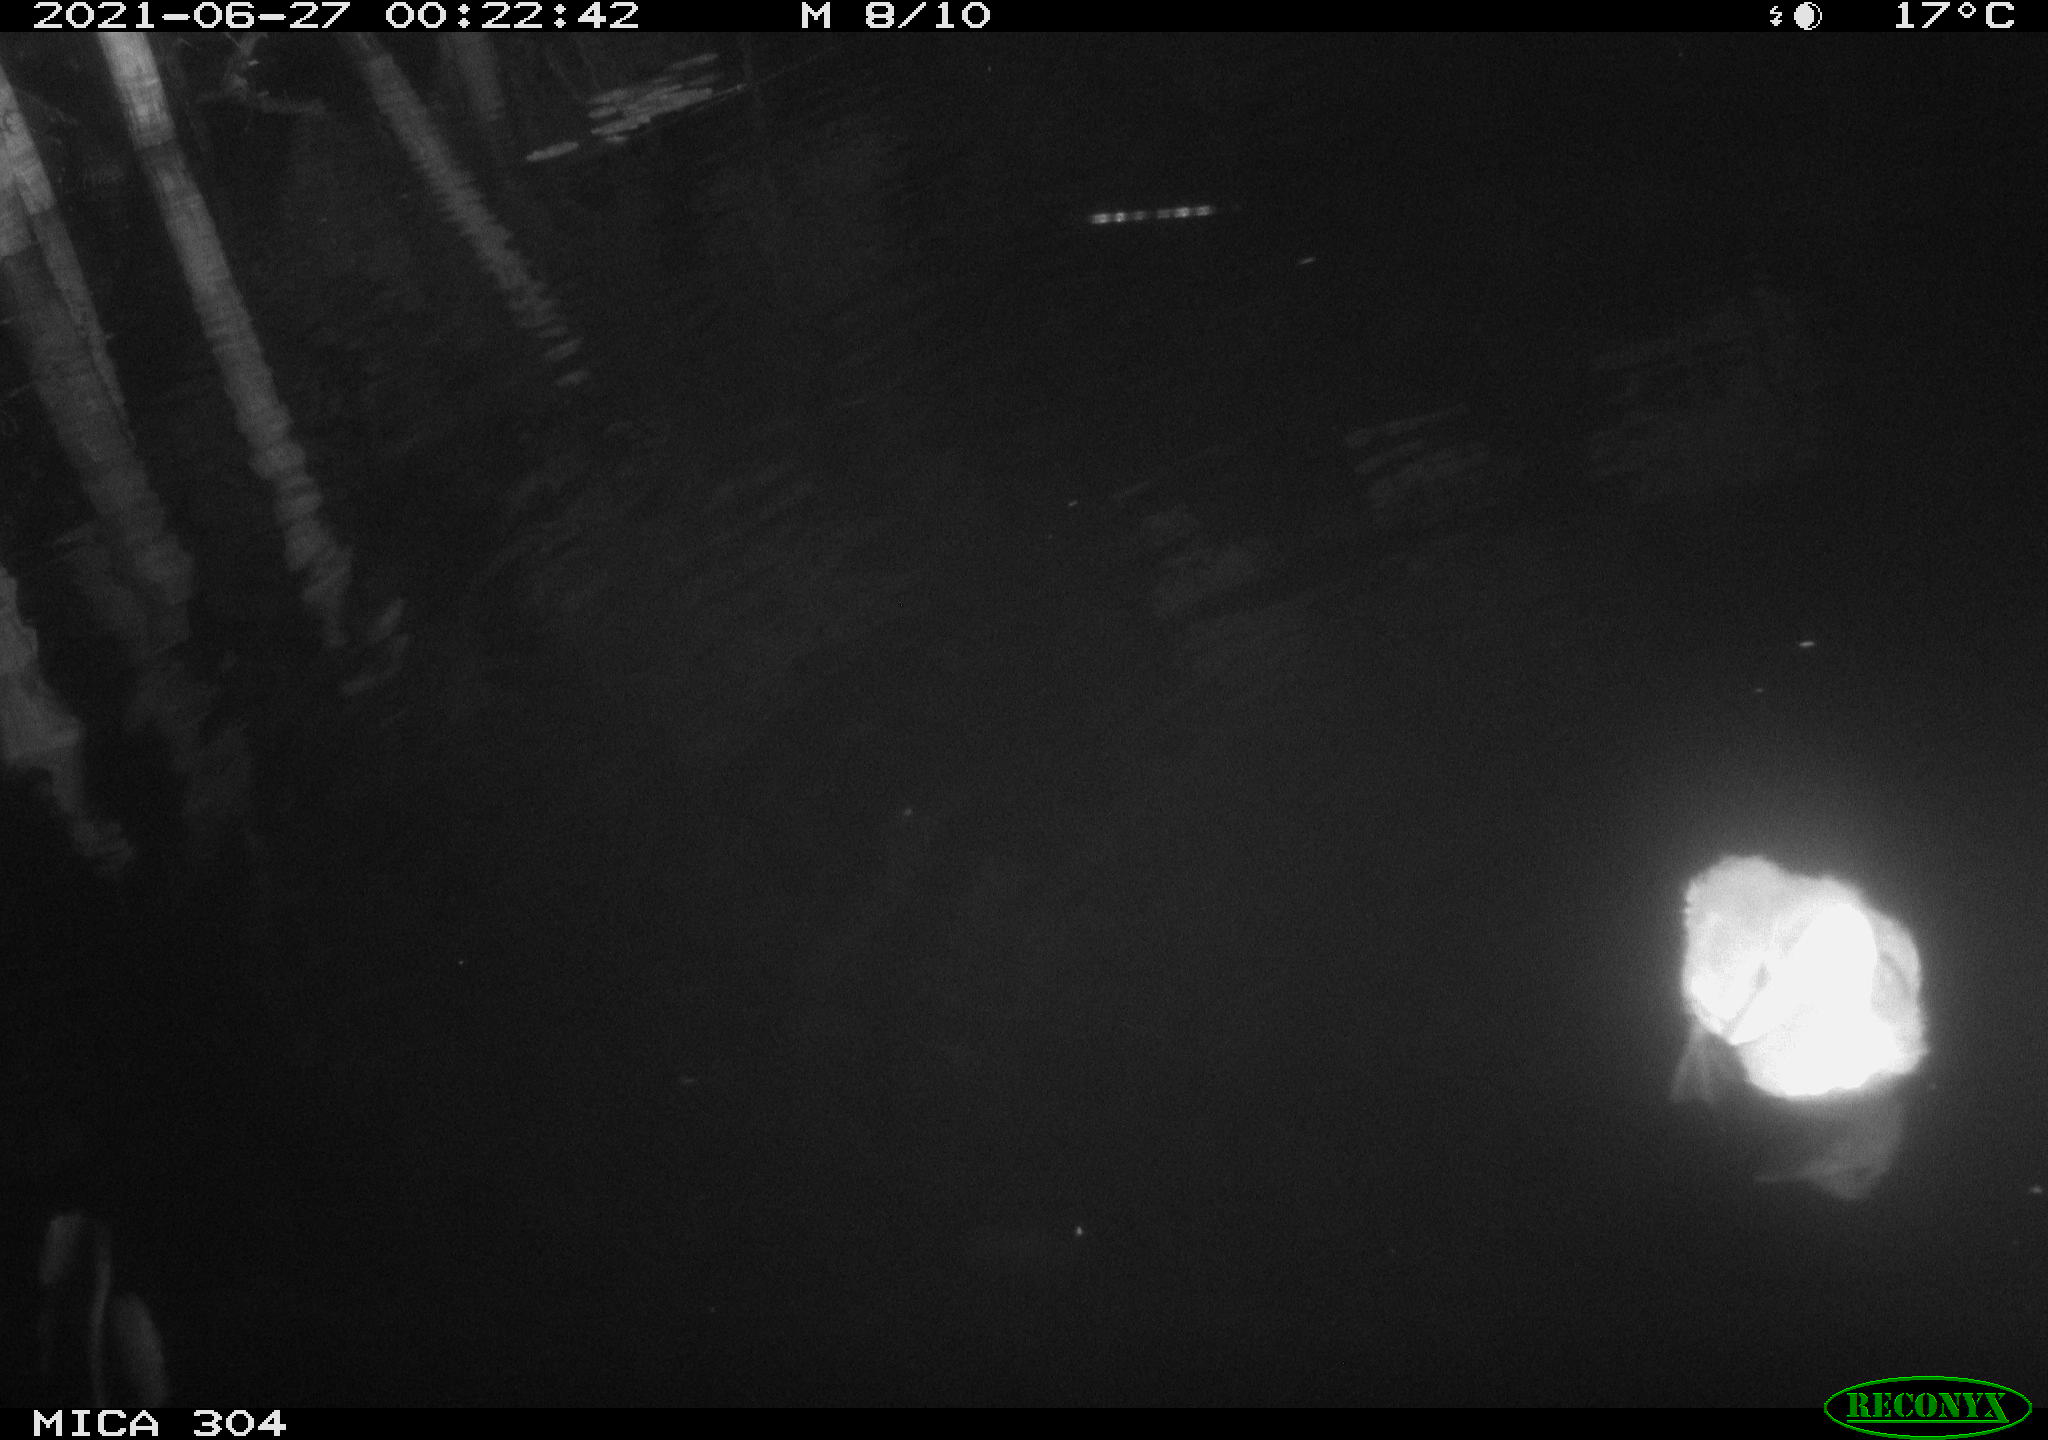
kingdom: Animalia
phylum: Chordata
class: Aves
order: Anseriformes
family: Anatidae
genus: Anas
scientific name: Anas platyrhynchos
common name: Mallard
